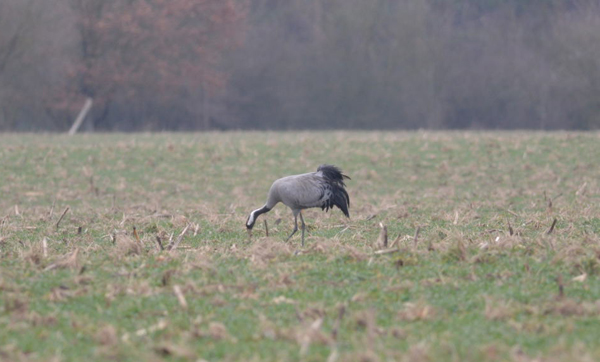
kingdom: Animalia
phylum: Chordata
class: Aves
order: Gruiformes
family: Gruidae
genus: Grus
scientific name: Grus grus
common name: Common crane
